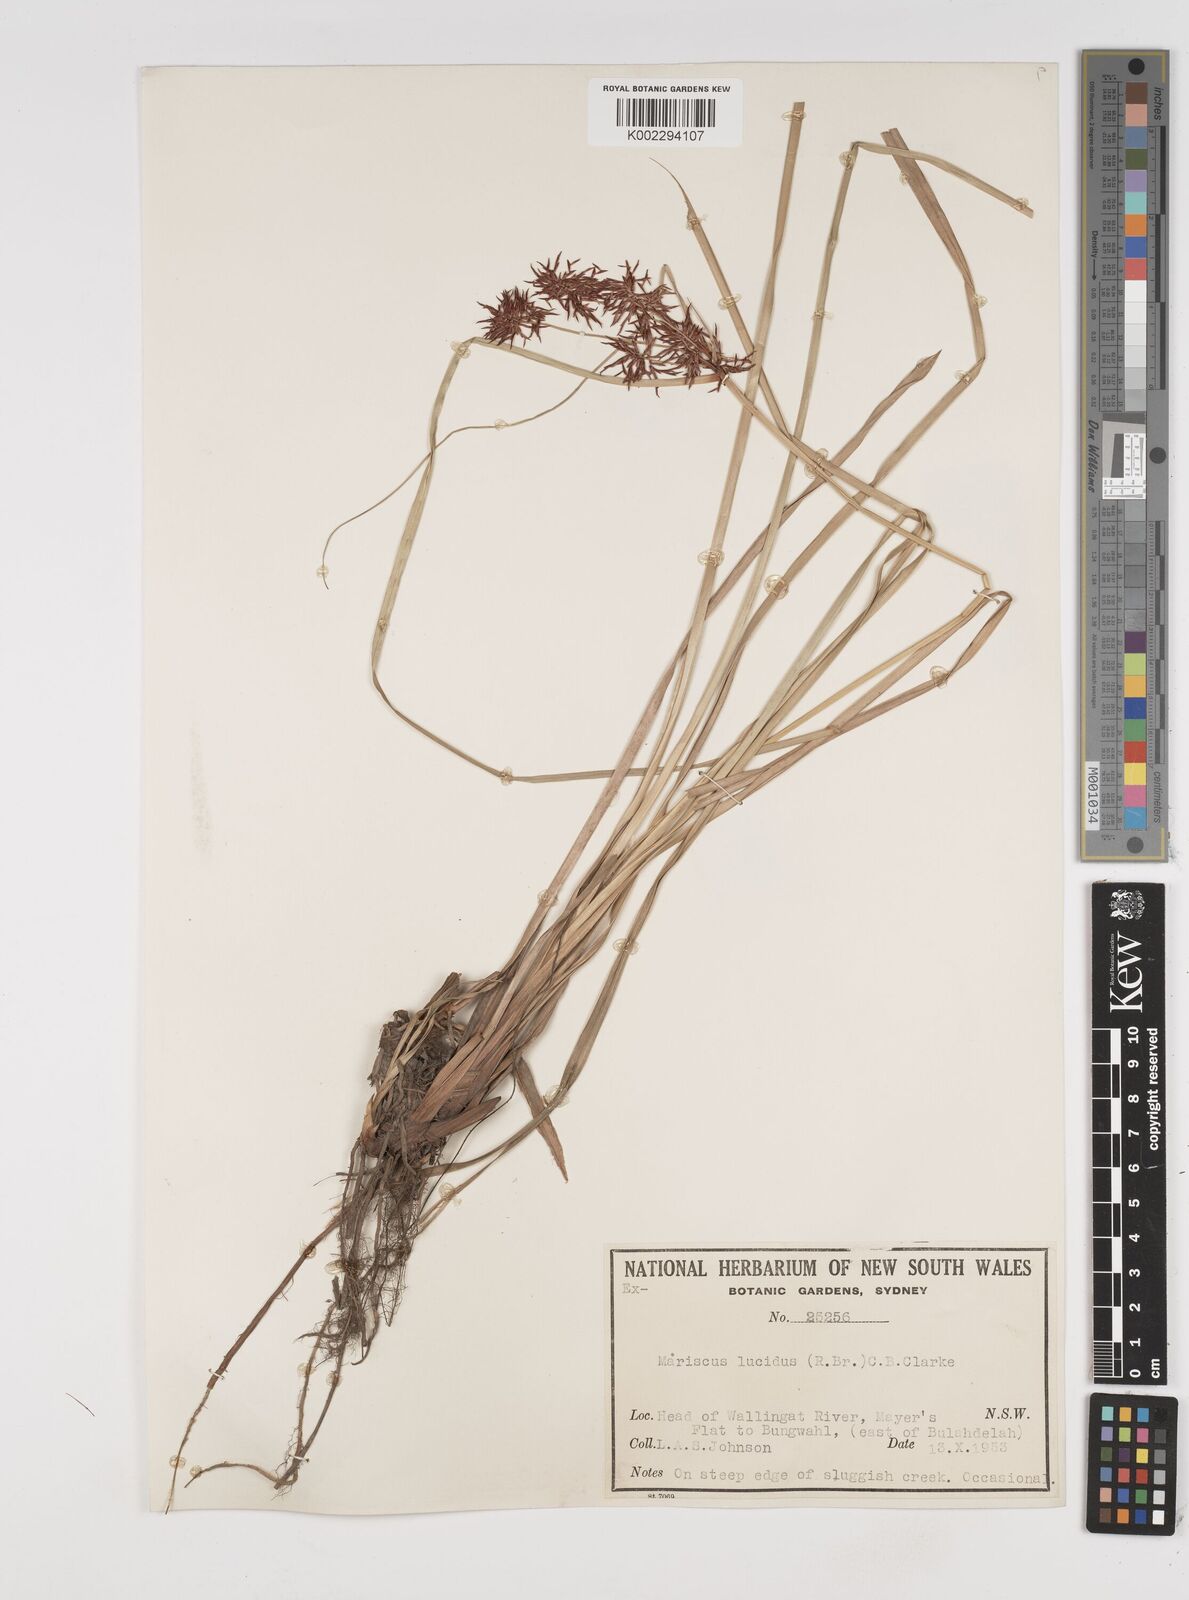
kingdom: Plantae
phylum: Tracheophyta
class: Liliopsida
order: Poales
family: Cyperaceae
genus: Cyperus
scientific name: Cyperus lucidus
